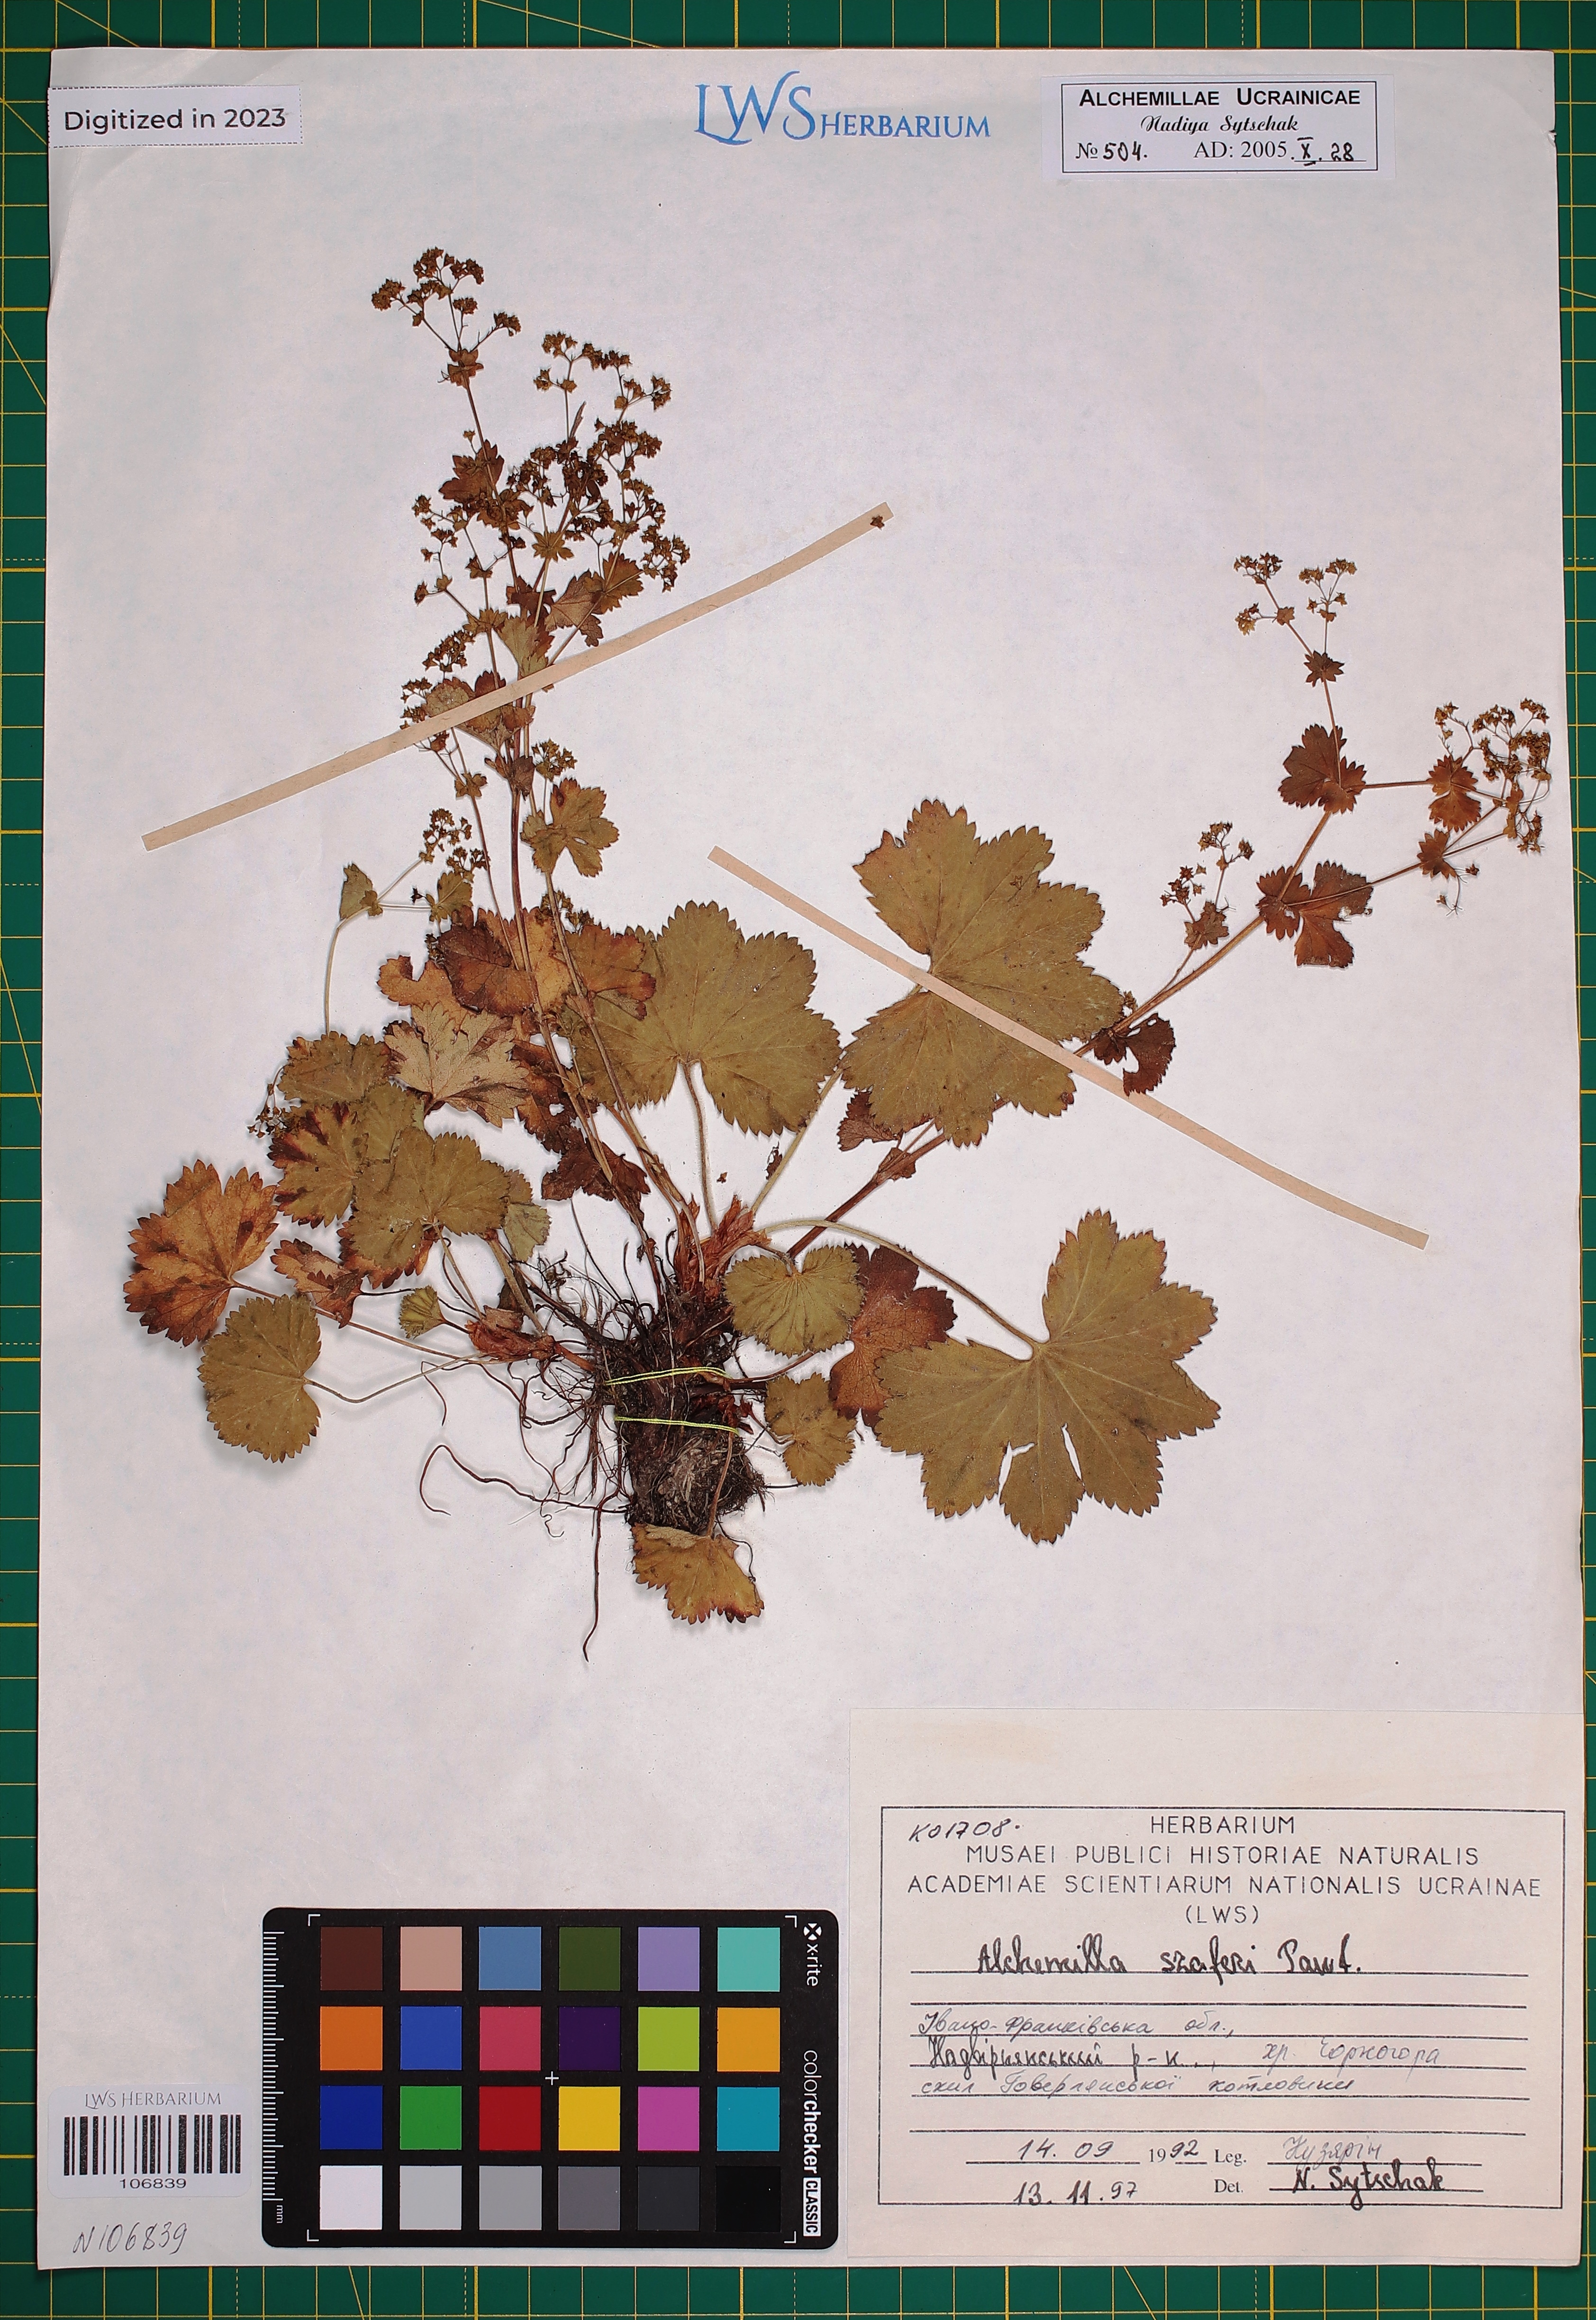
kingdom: Plantae
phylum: Tracheophyta
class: Magnoliopsida
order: Rosales
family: Rosaceae
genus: Alchemilla
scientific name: Alchemilla szaferi
